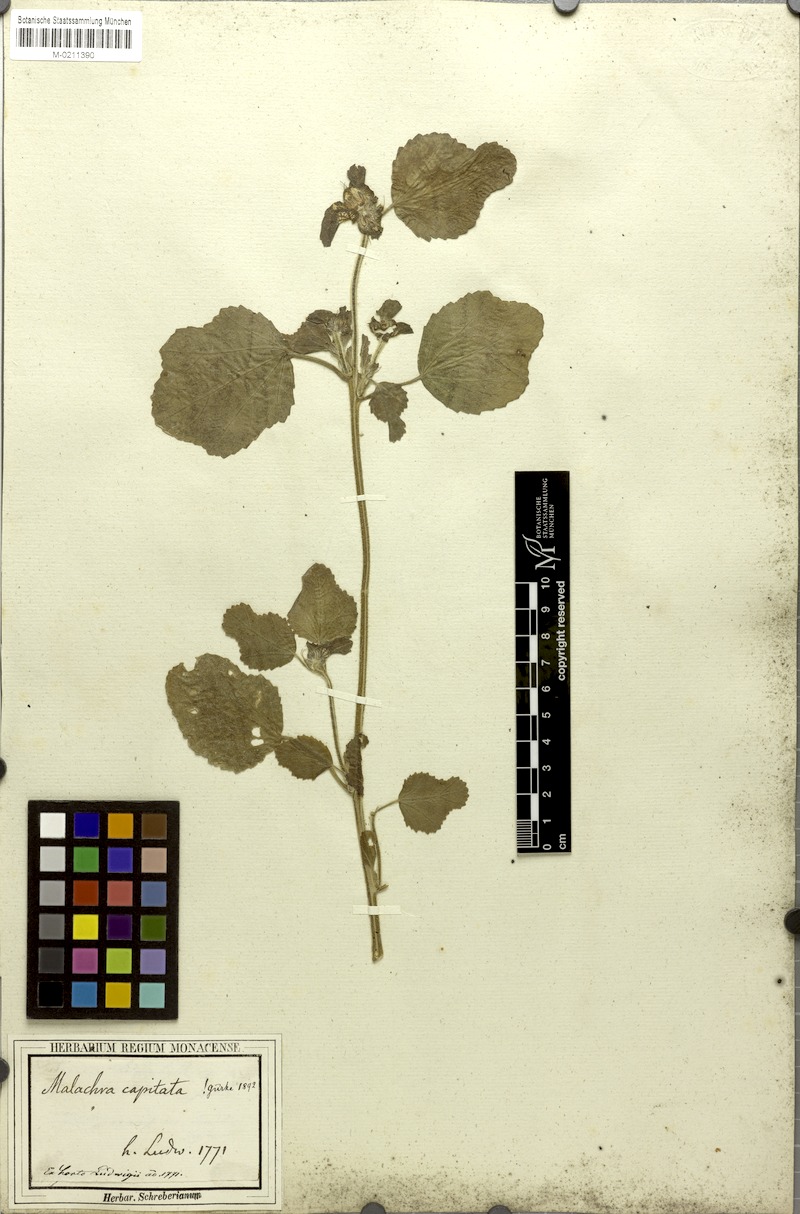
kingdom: Plantae
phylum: Tracheophyta
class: Magnoliopsida
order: Malvales
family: Malvaceae
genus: Malachra
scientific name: Malachra capitata
